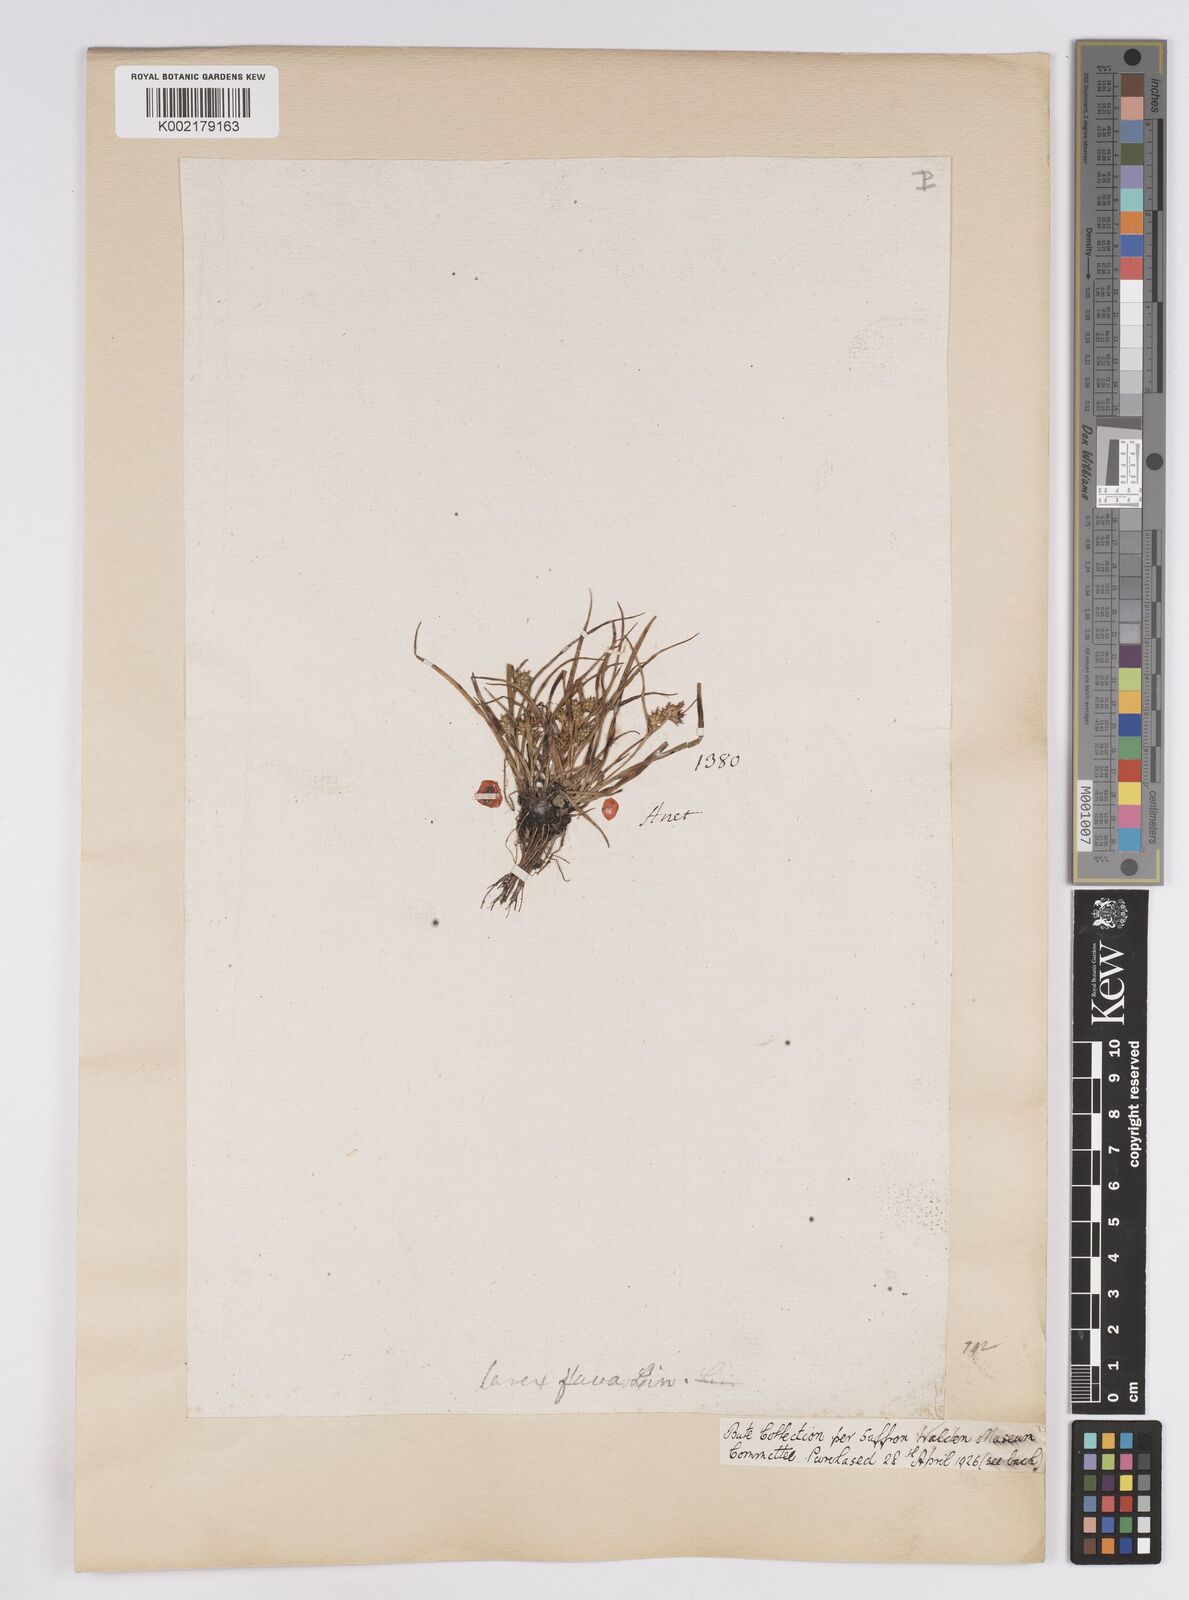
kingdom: Plantae
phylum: Tracheophyta
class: Liliopsida
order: Poales
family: Cyperaceae
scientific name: Cyperaceae
